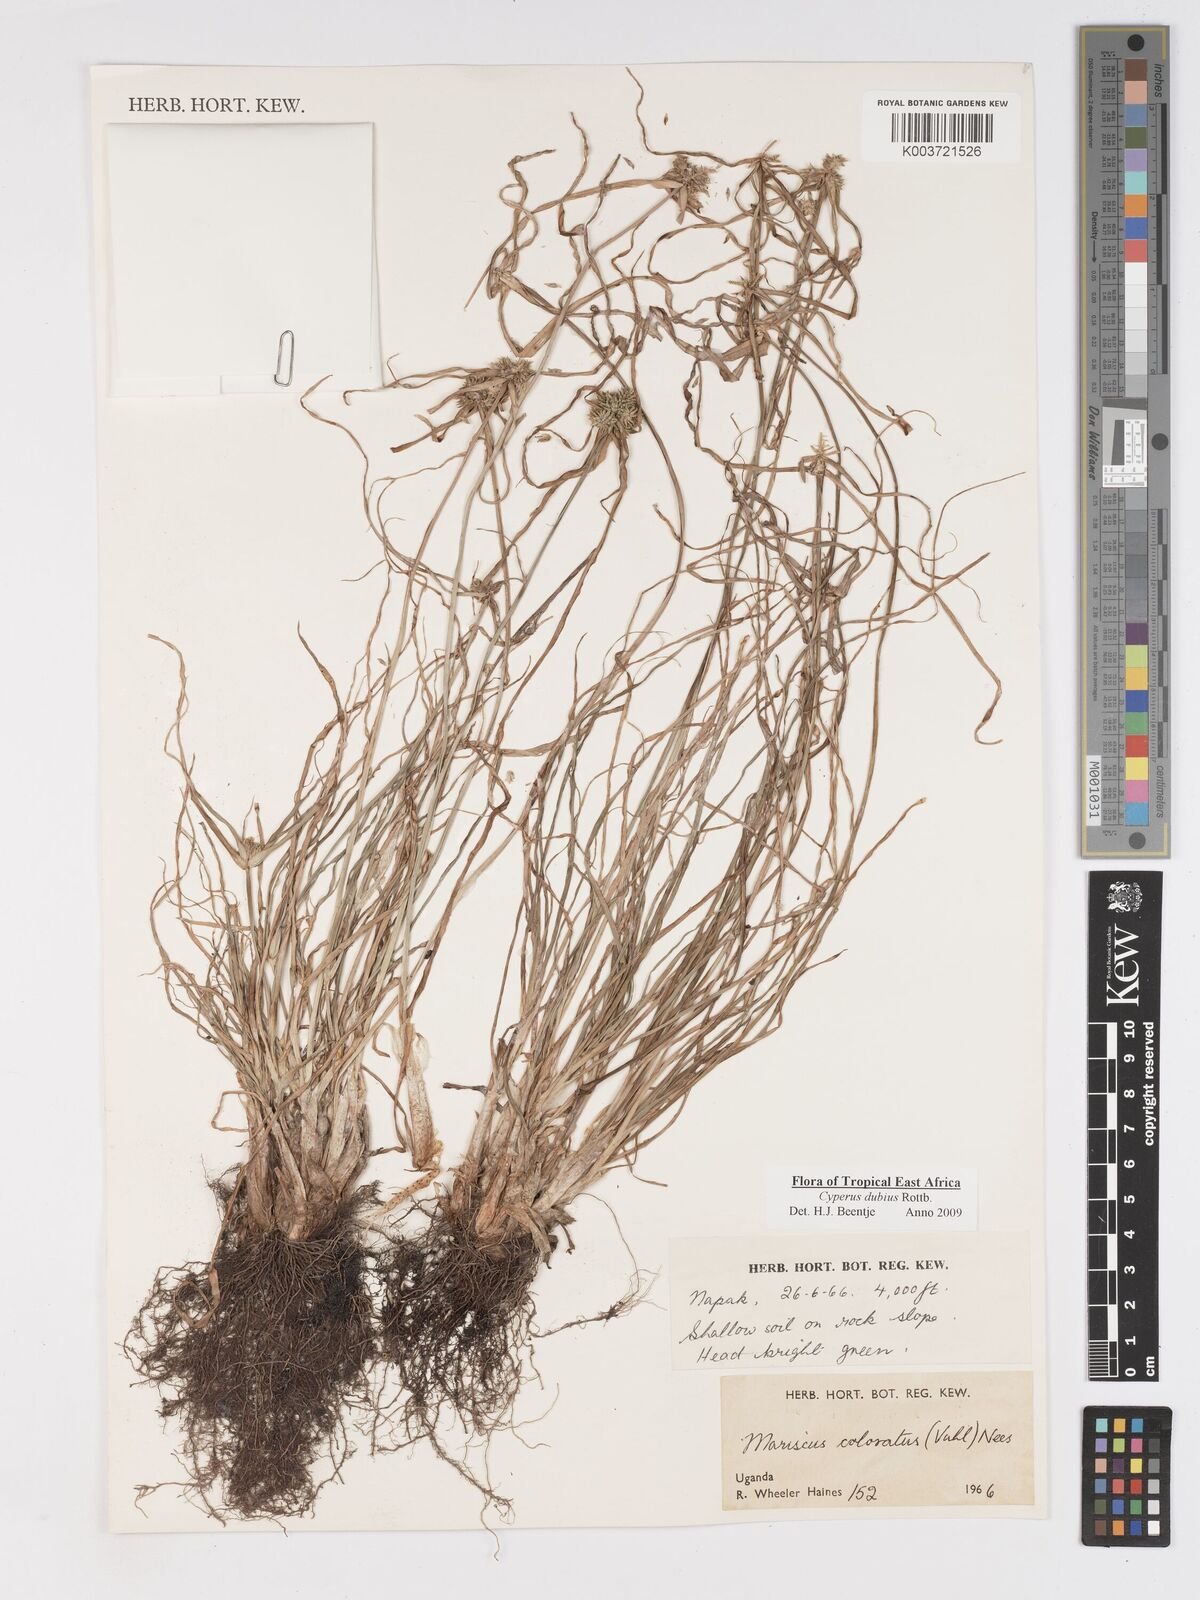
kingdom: Plantae
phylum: Tracheophyta
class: Liliopsida
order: Poales
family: Cyperaceae
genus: Cyperus
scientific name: Cyperus dubius
